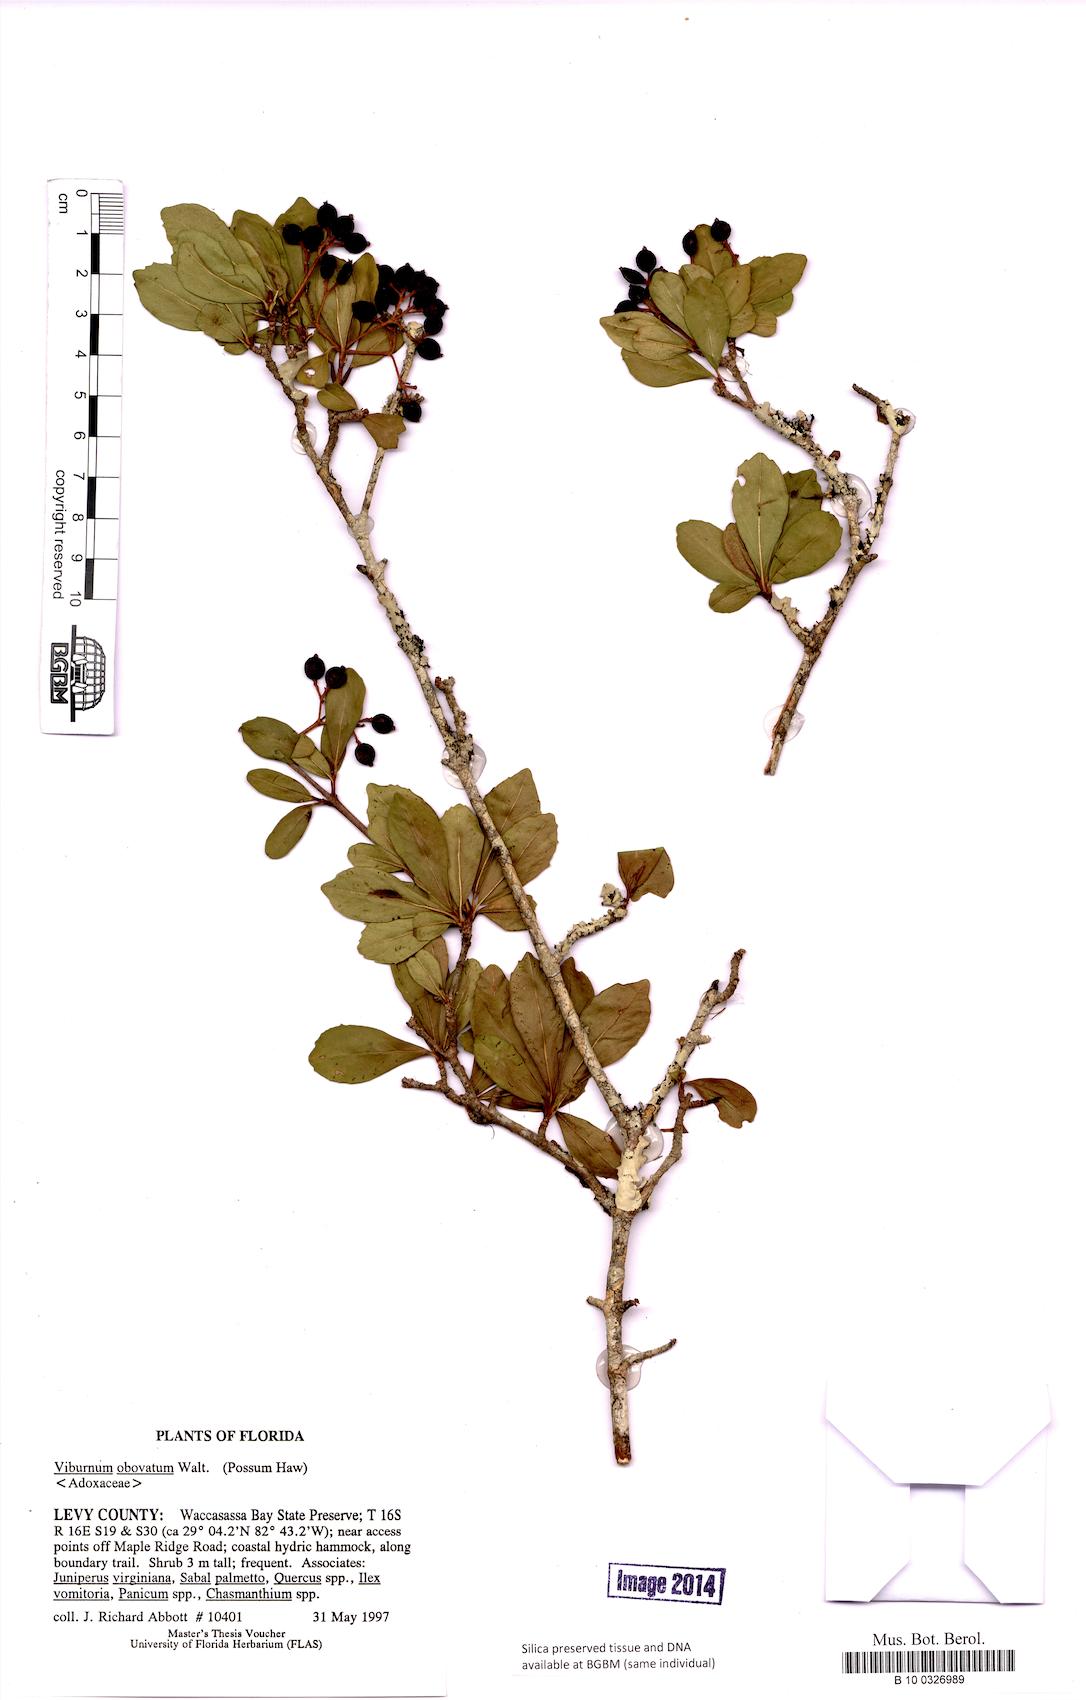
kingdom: Plantae
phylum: Tracheophyta
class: Magnoliopsida
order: Dipsacales
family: Viburnaceae
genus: Viburnum
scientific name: Viburnum obovatum
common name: Walter's viburnum
